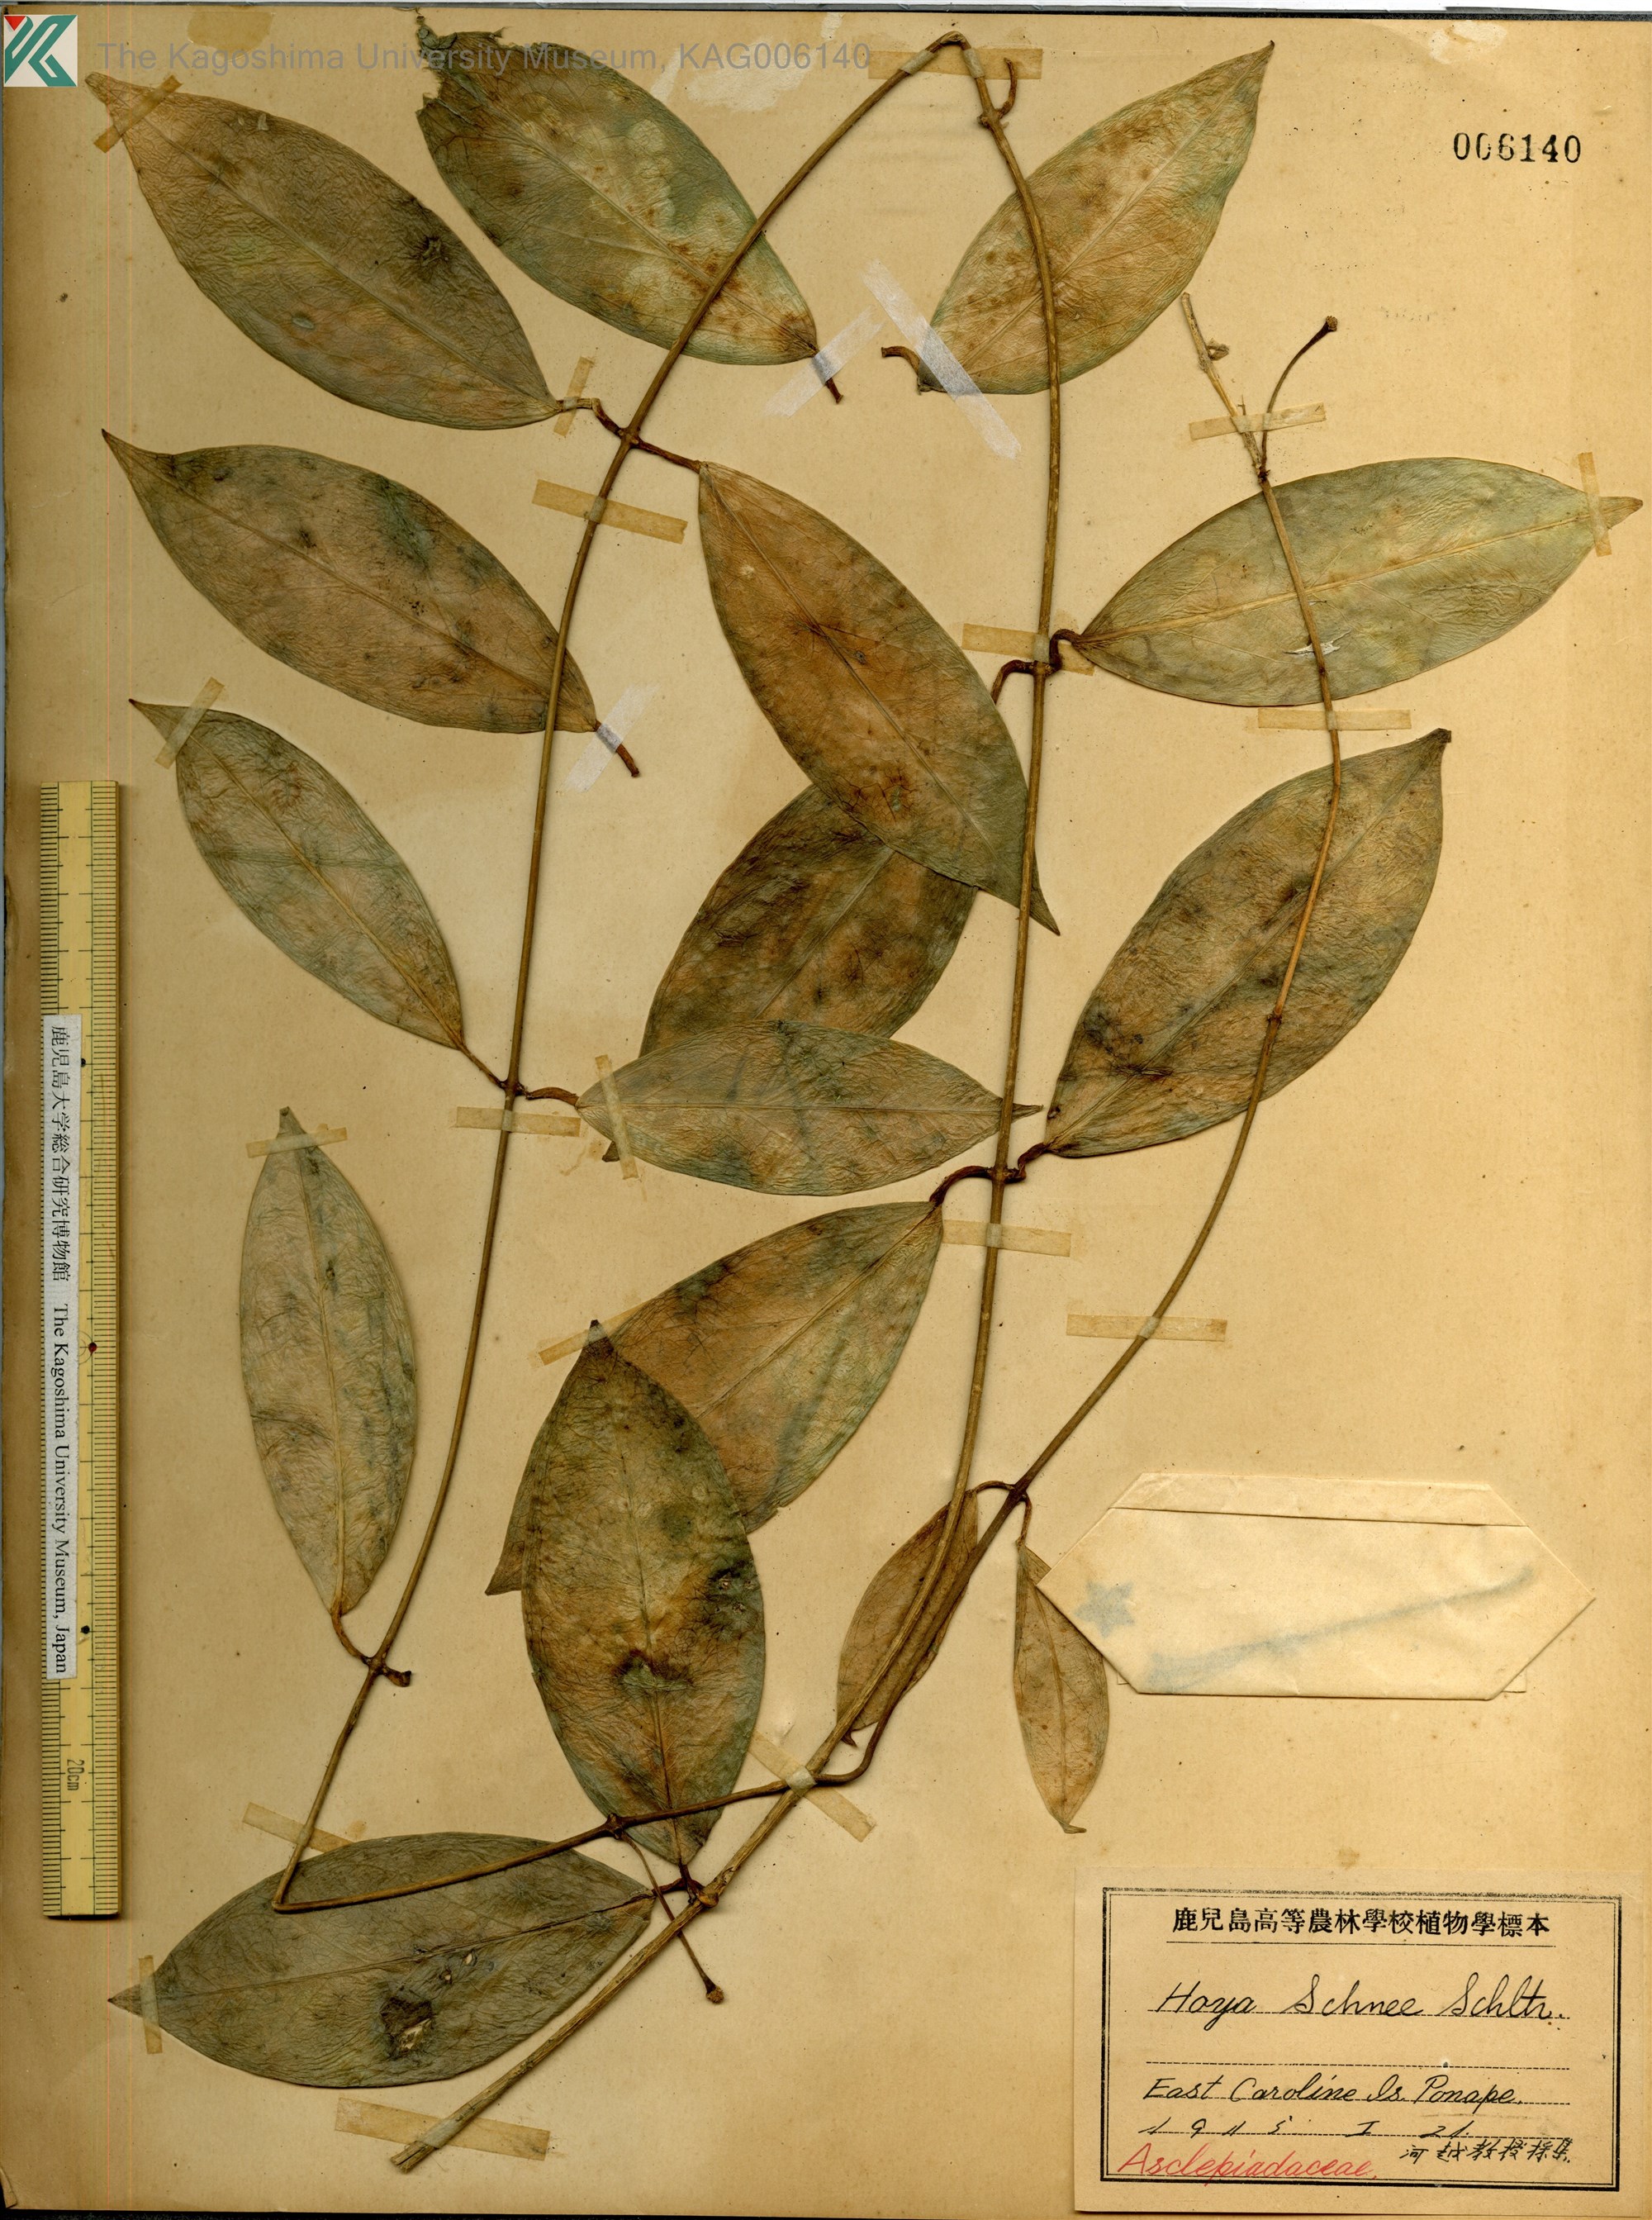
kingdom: Plantae
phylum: Tracheophyta
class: Magnoliopsida
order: Gentianales
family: Apocynaceae
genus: Hoya
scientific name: Hoya
